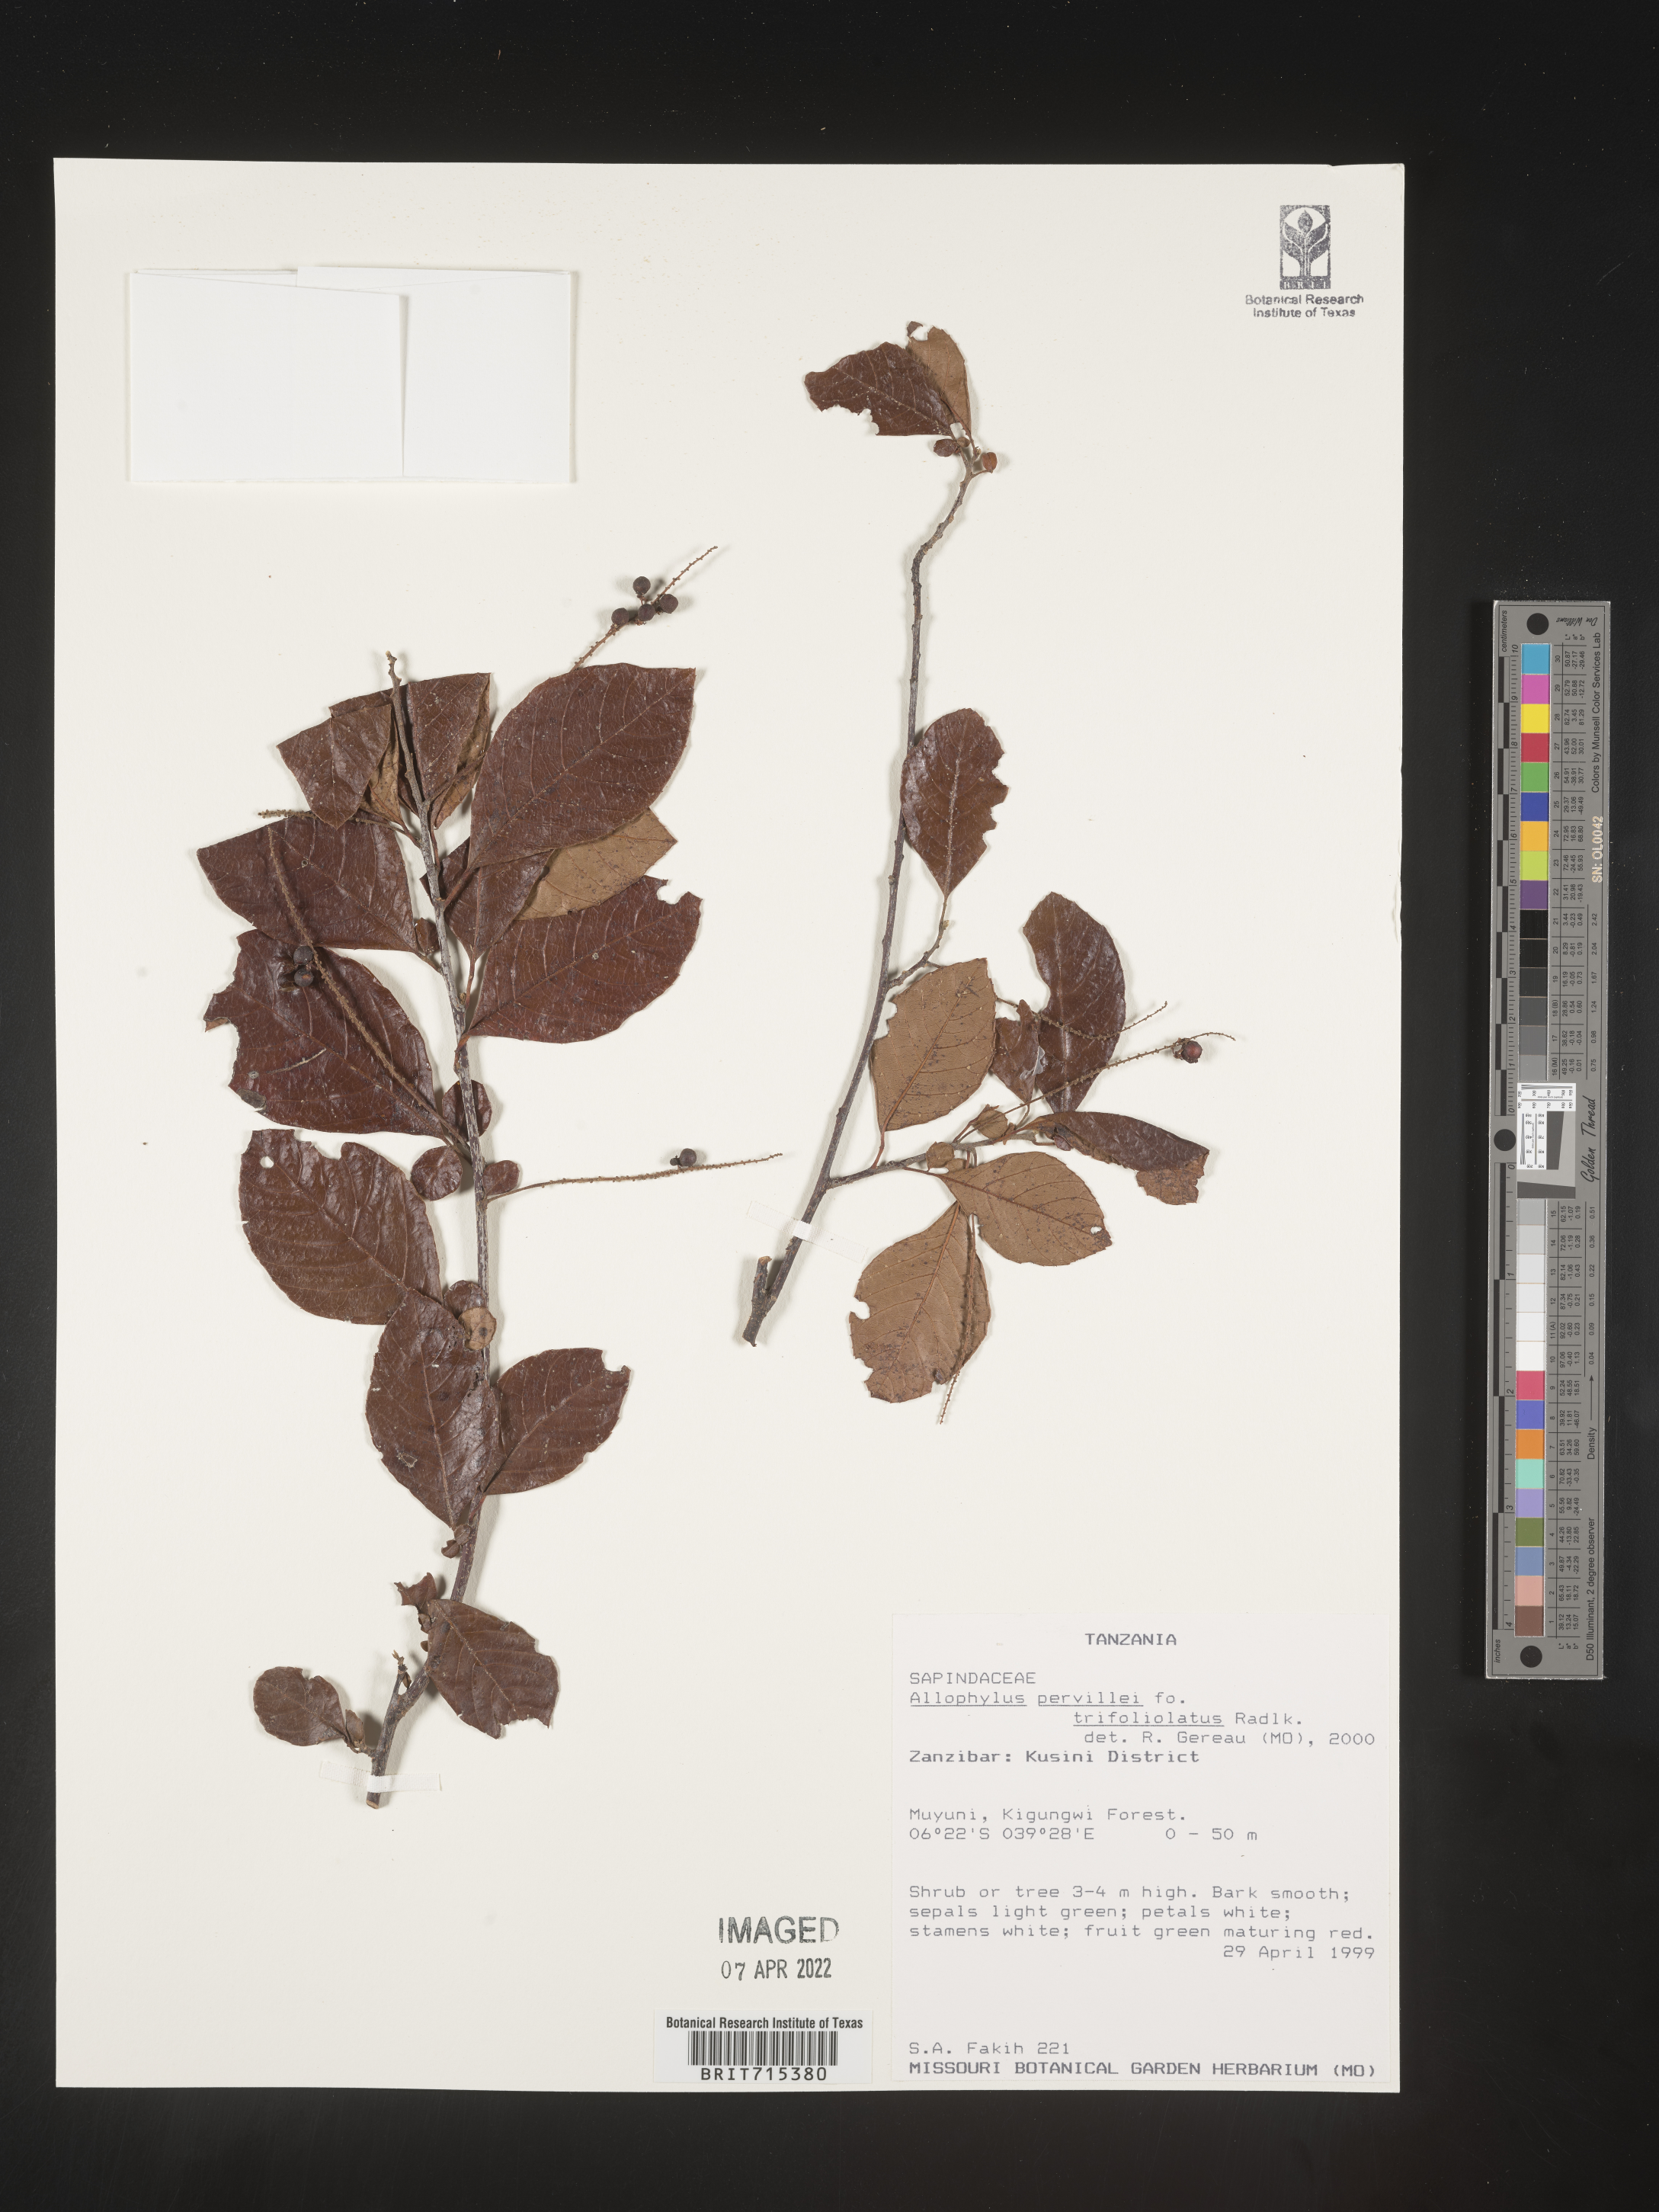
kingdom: Plantae
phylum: Tracheophyta
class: Magnoliopsida
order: Sapindales
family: Sapindaceae
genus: Allophylus
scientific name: Allophylus fulvotomentosus
